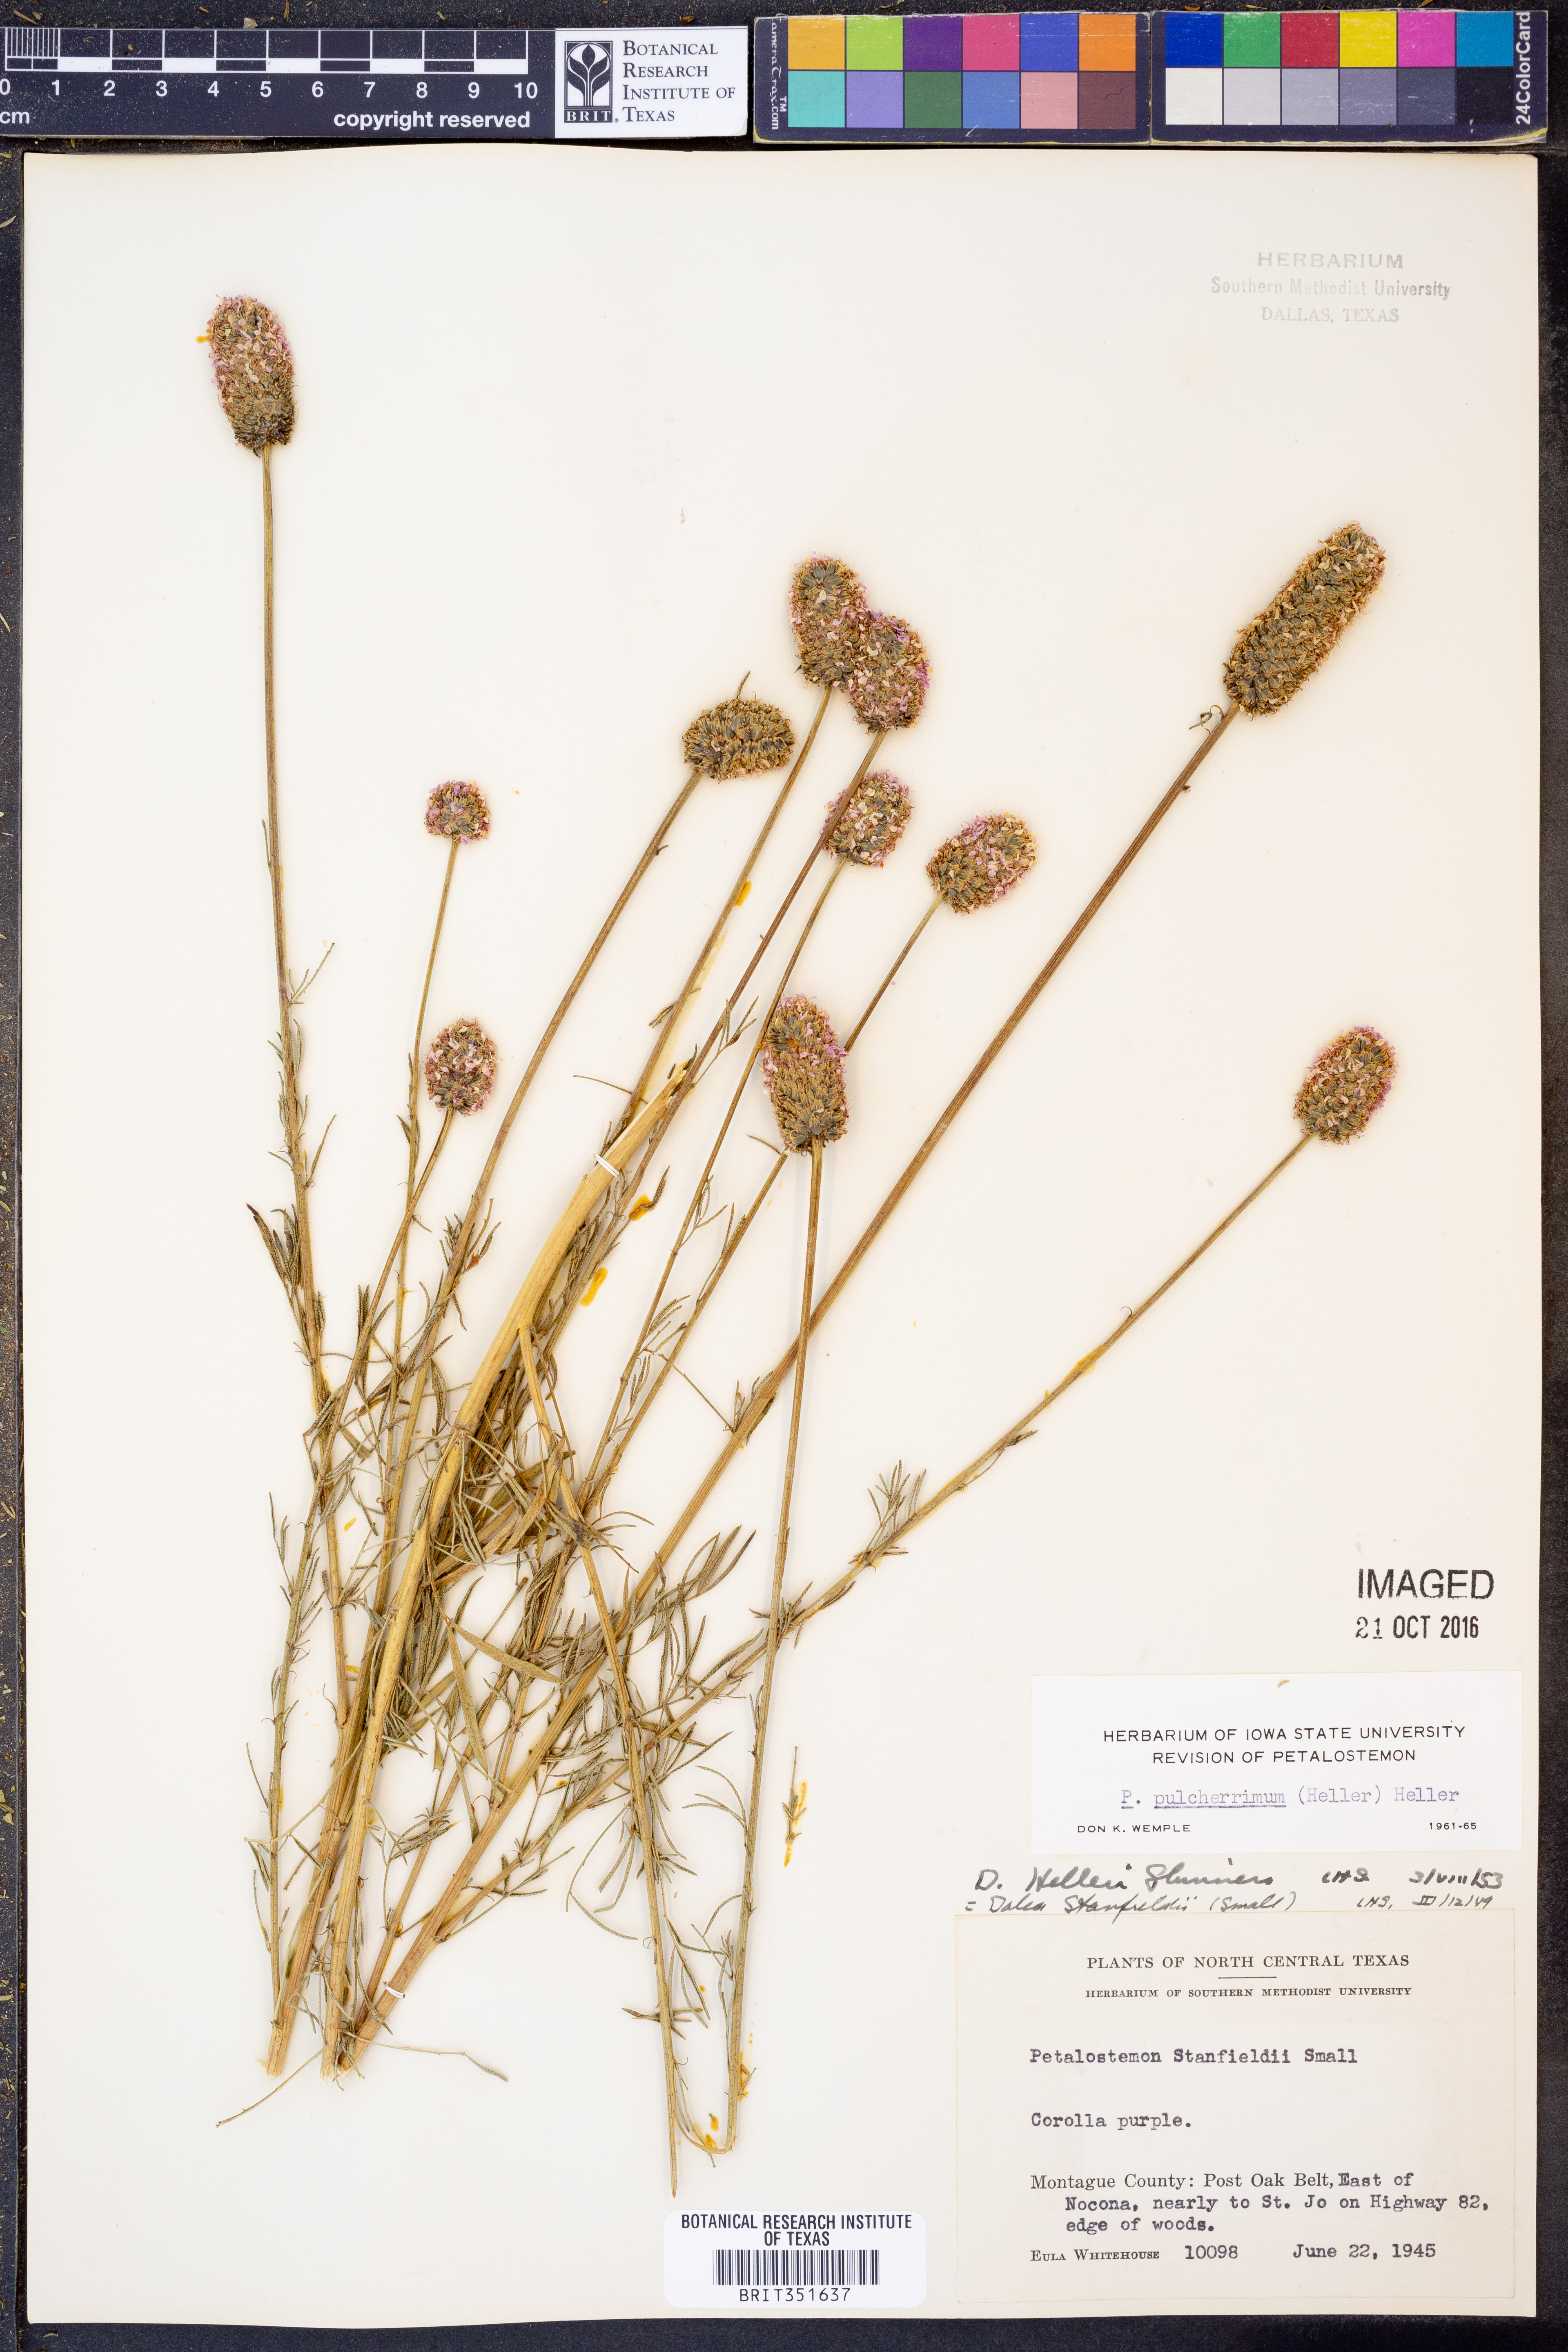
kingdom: Plantae
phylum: Tracheophyta
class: Magnoliopsida
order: Fabales
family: Fabaceae
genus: Dalea
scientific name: Dalea compacta
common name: Compact prairie-clover
